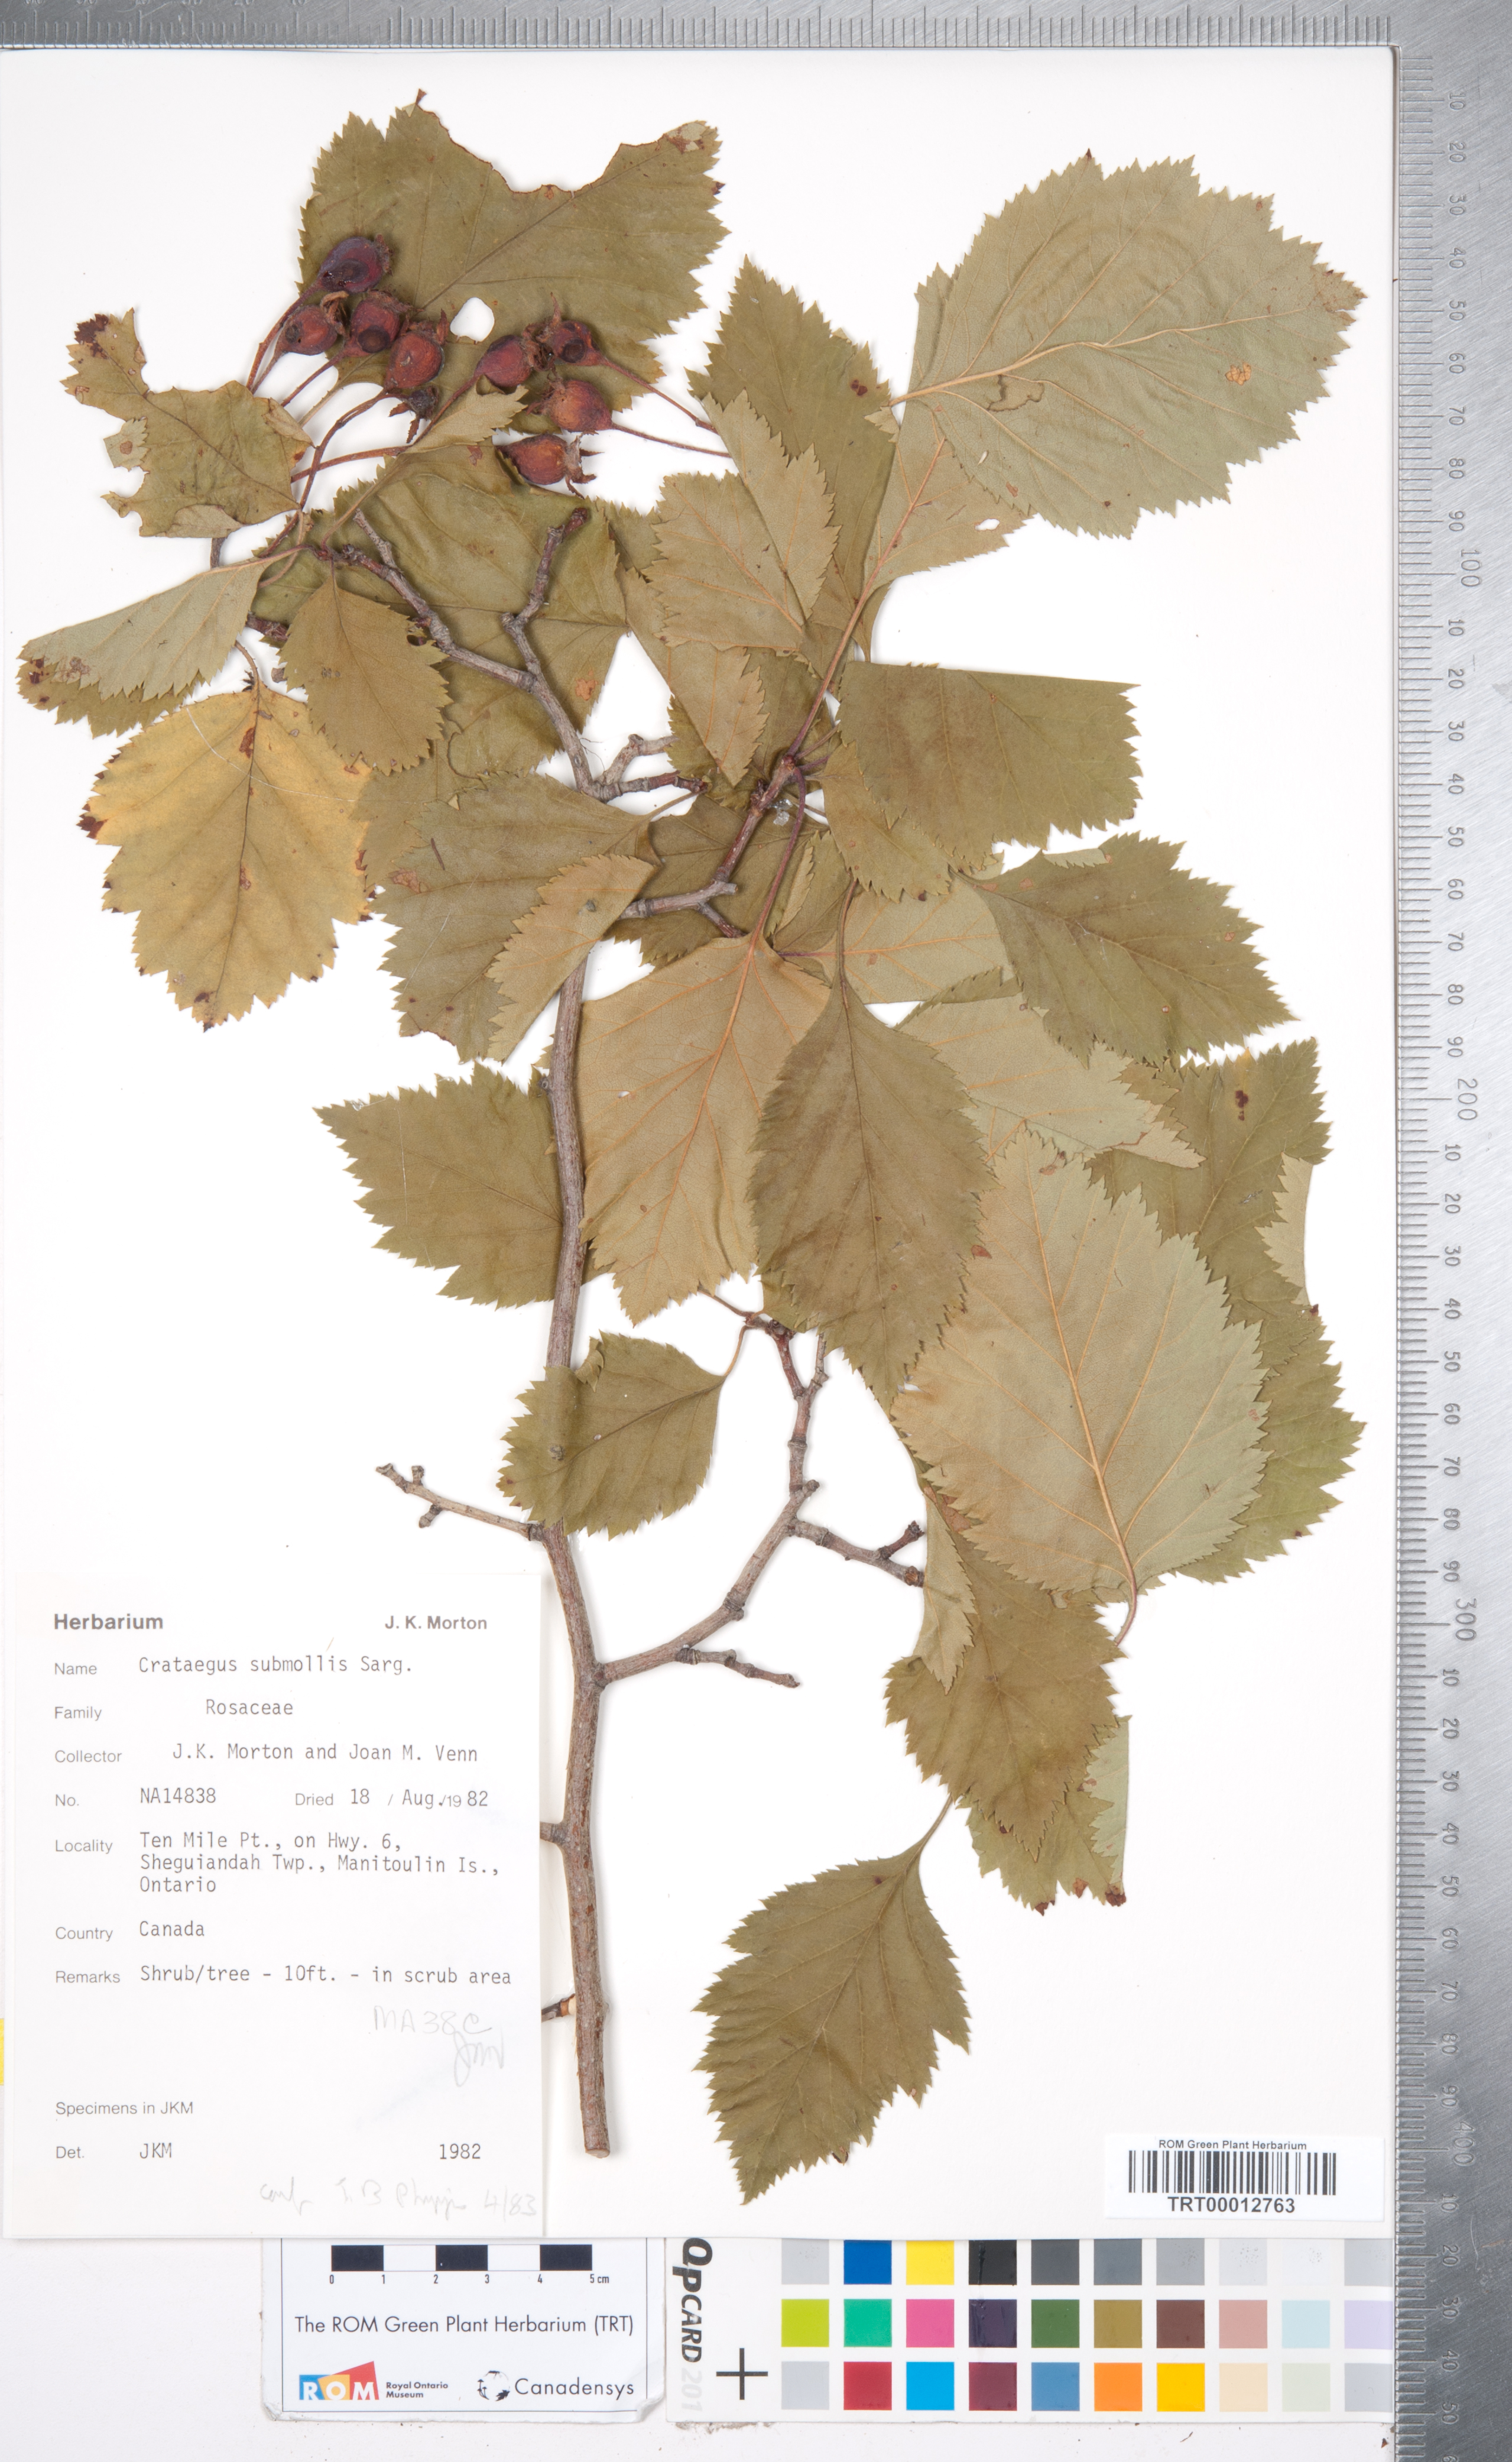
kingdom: Plantae
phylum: Tracheophyta
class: Magnoliopsida
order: Rosales
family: Rosaceae
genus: Crataegus
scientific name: Crataegus submollis
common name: Hairy cockspurthorn
